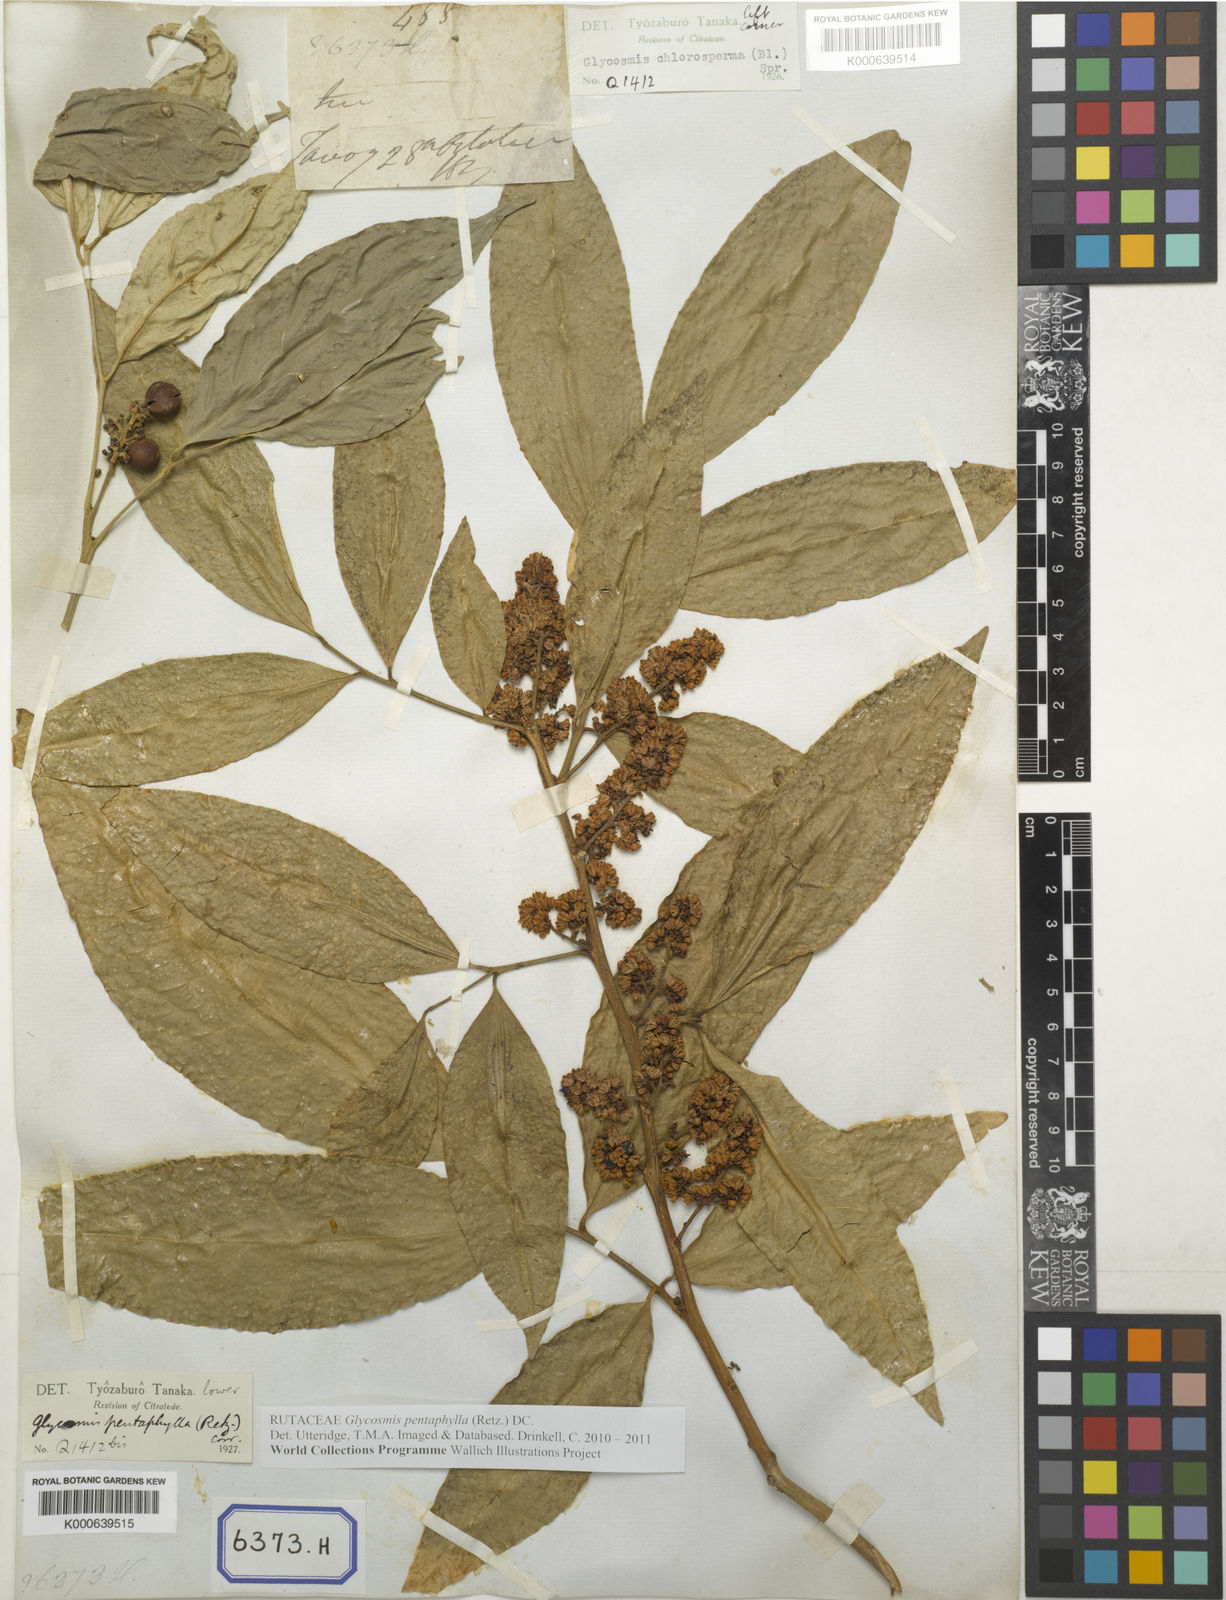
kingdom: Plantae
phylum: Tracheophyta
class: Magnoliopsida
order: Sapindales
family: Rutaceae
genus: Glycosmis
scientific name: Glycosmis pentaphylla
